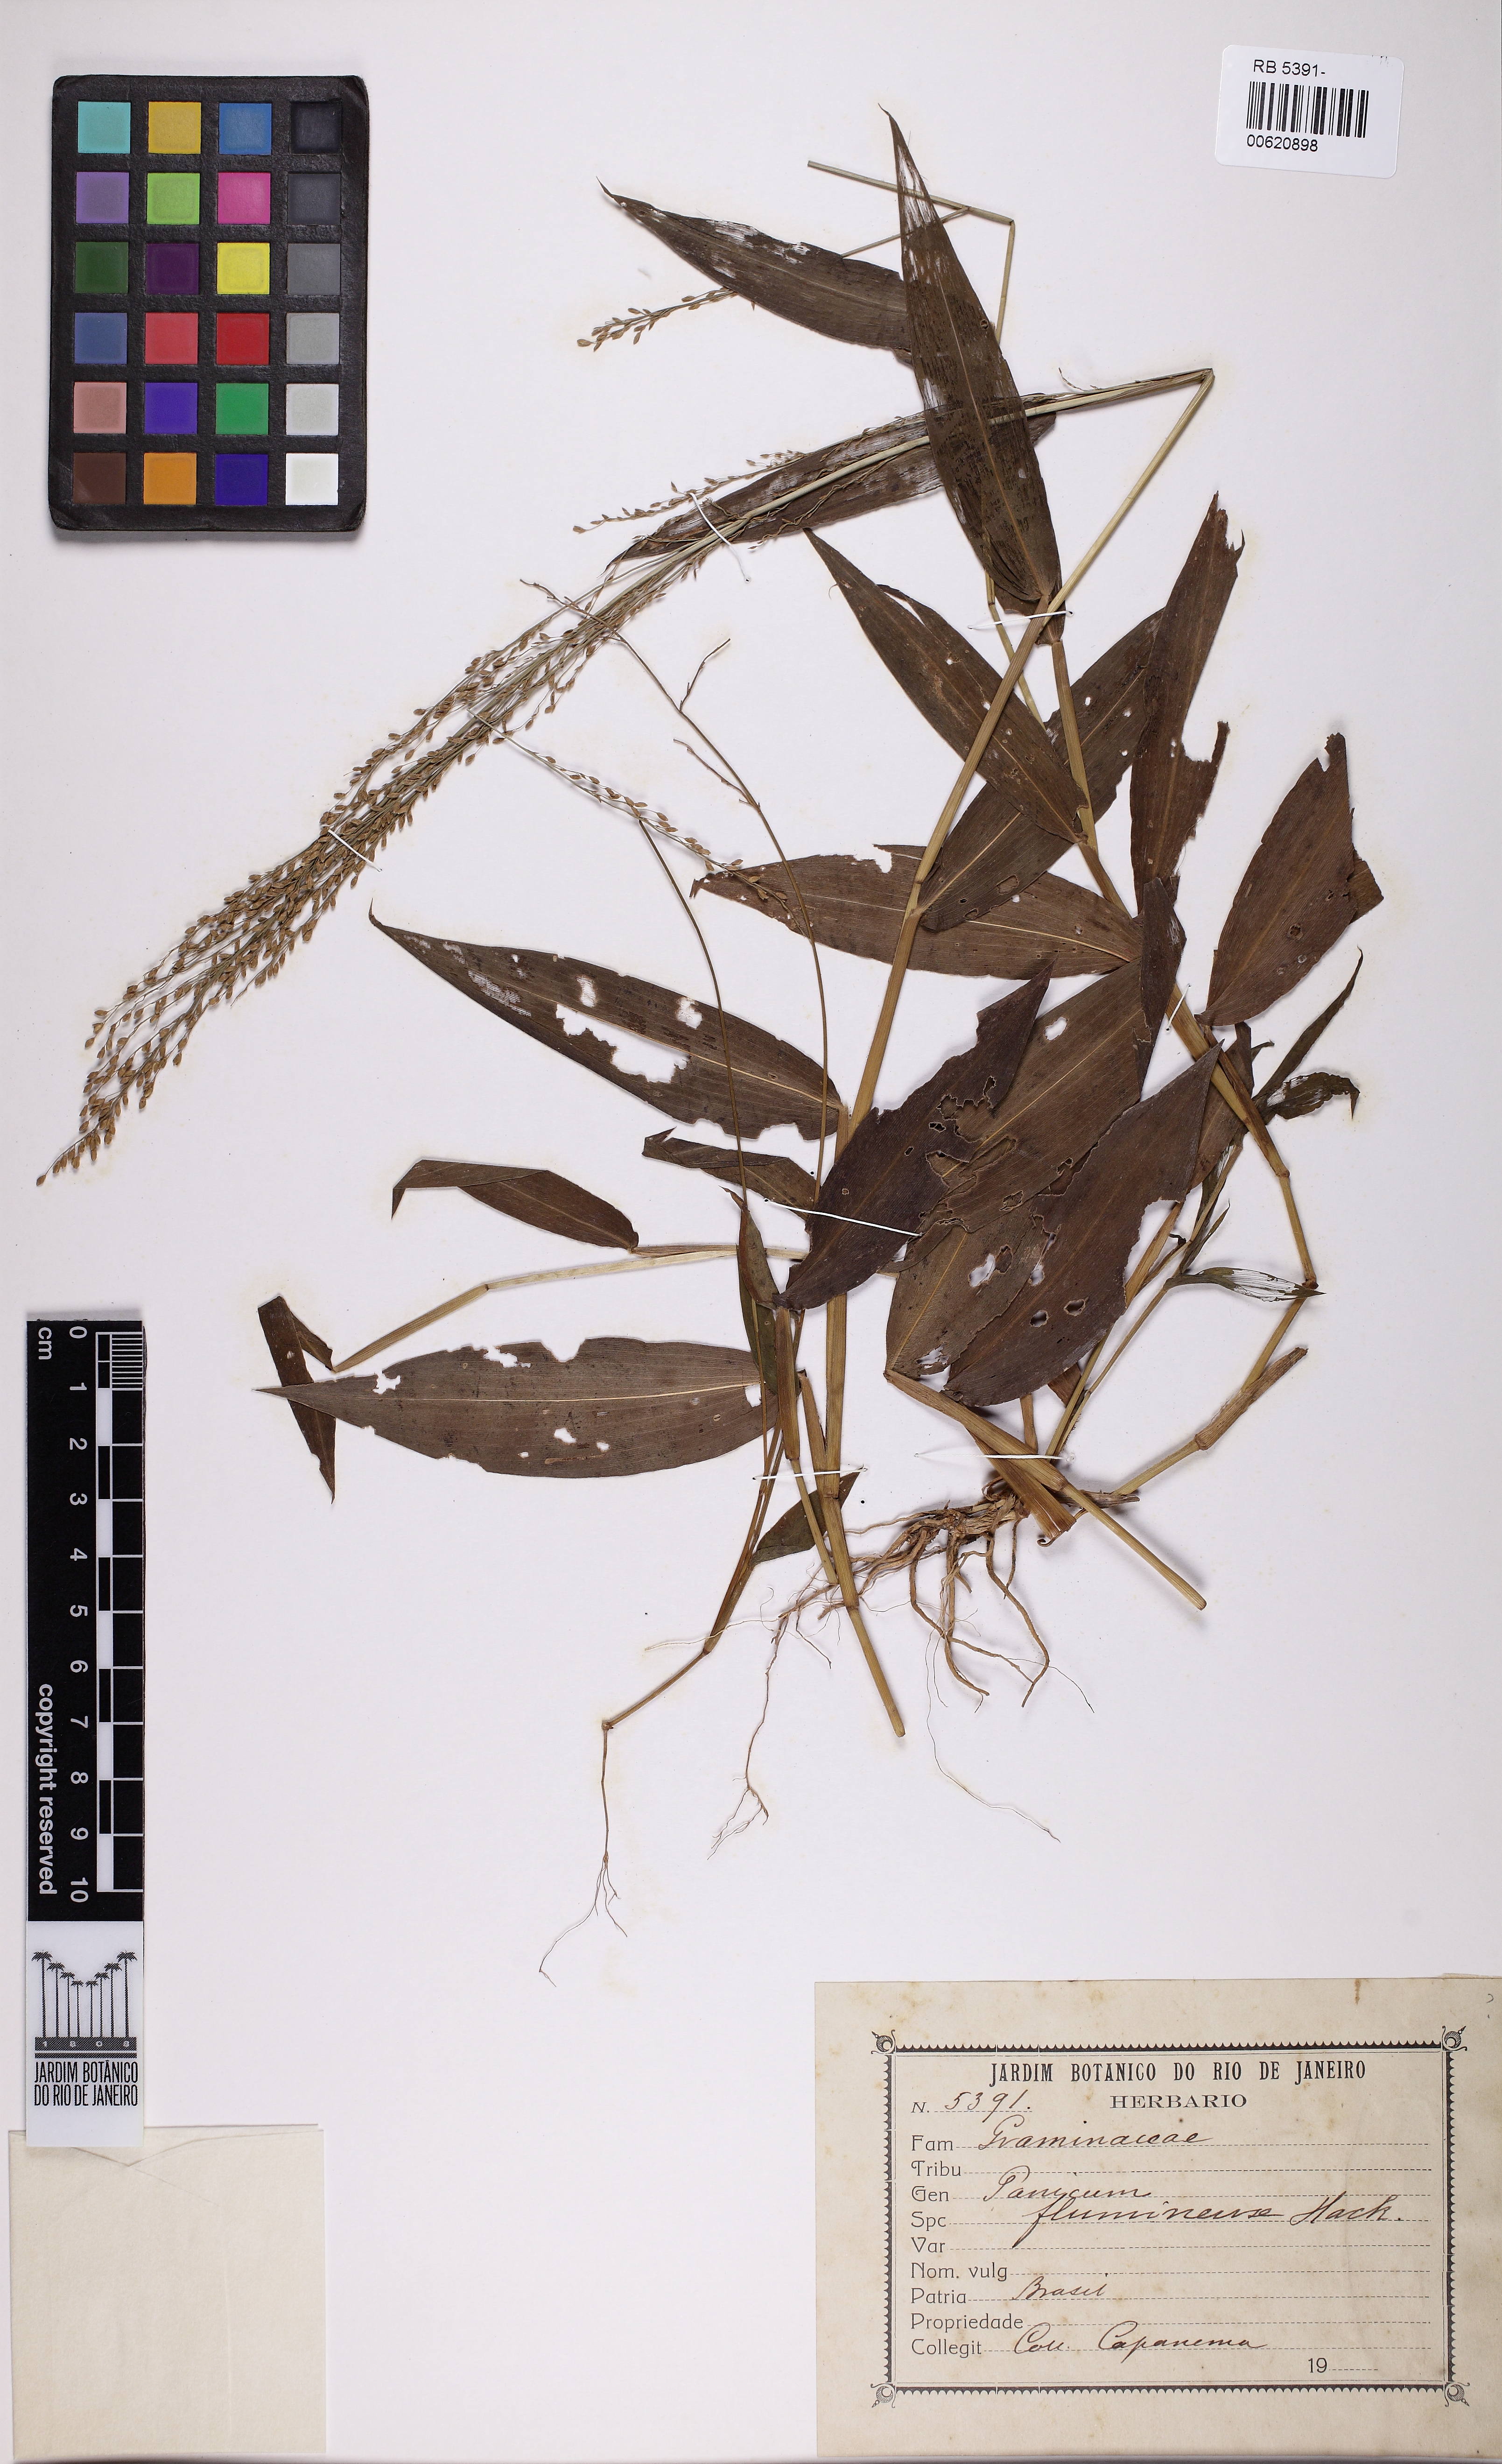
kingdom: Plantae
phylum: Tracheophyta
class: Liliopsida
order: Poales
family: Poaceae
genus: Acroceras
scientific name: Acroceras fluminense
